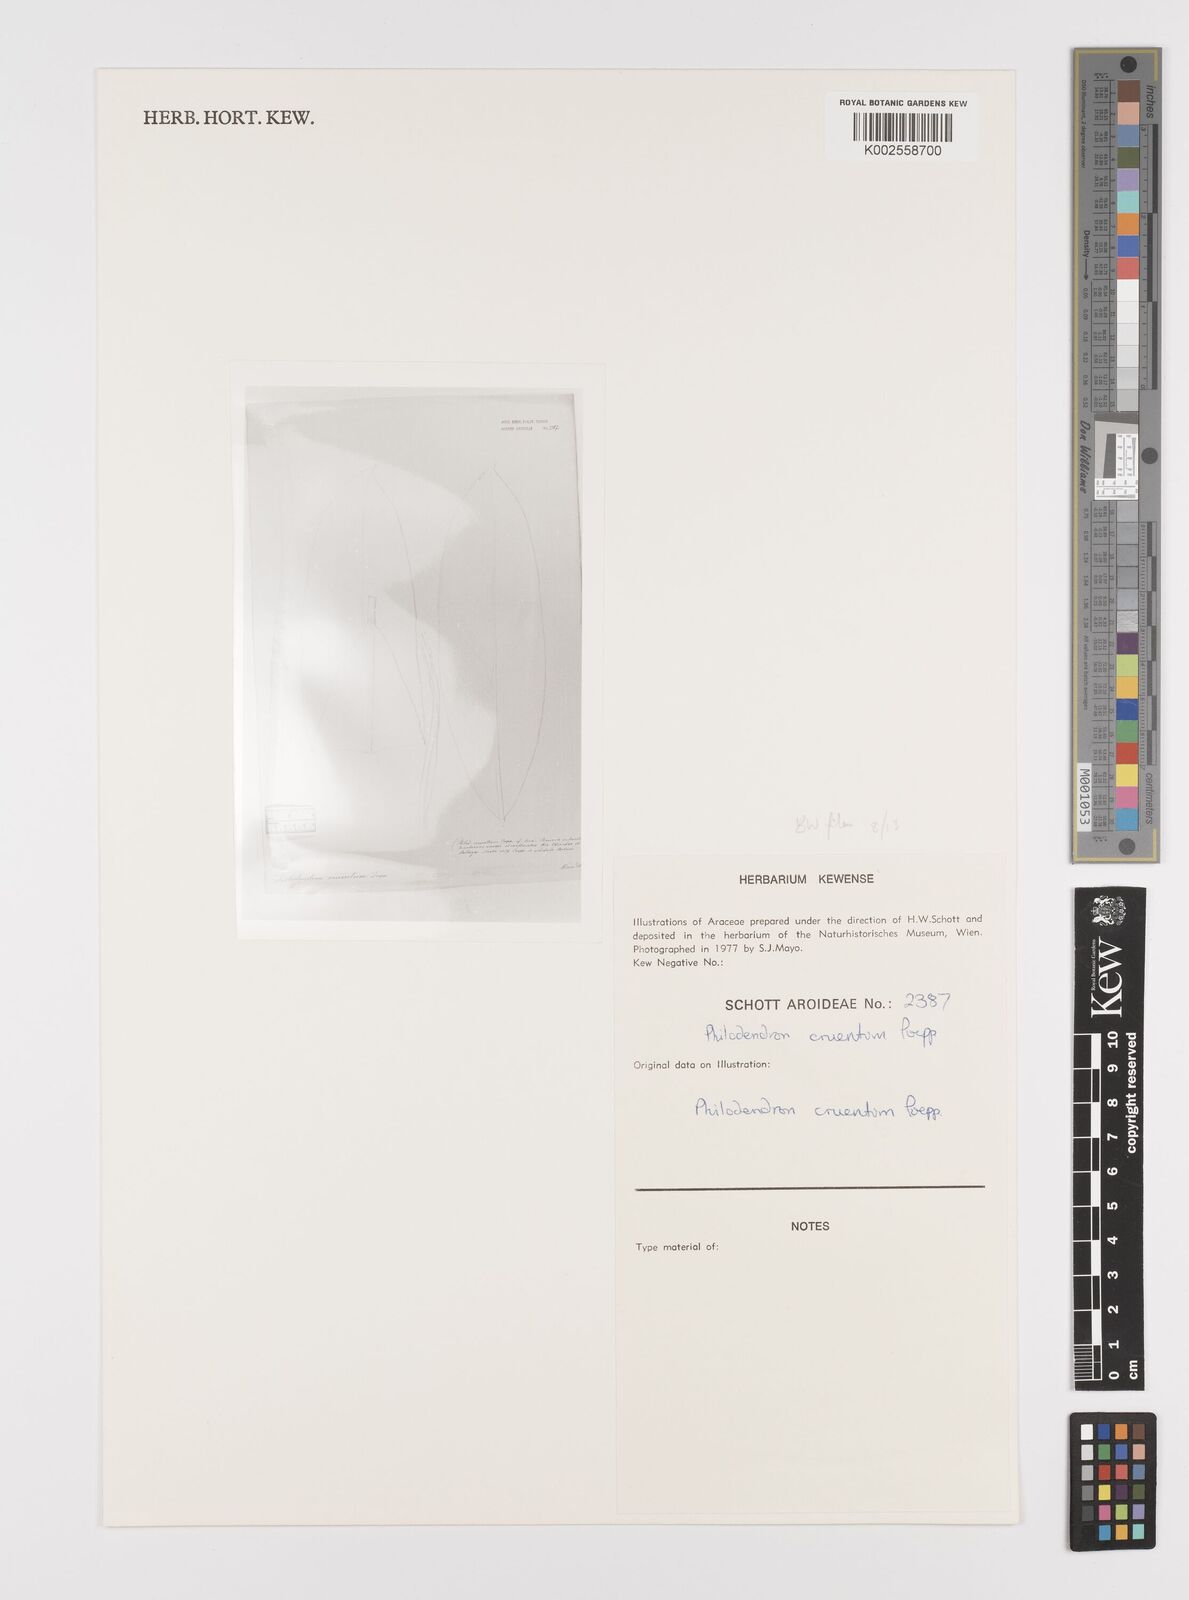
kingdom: Plantae
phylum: Tracheophyta
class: Liliopsida
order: Alismatales
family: Araceae
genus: Philodendron
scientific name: Philodendron cruentum
